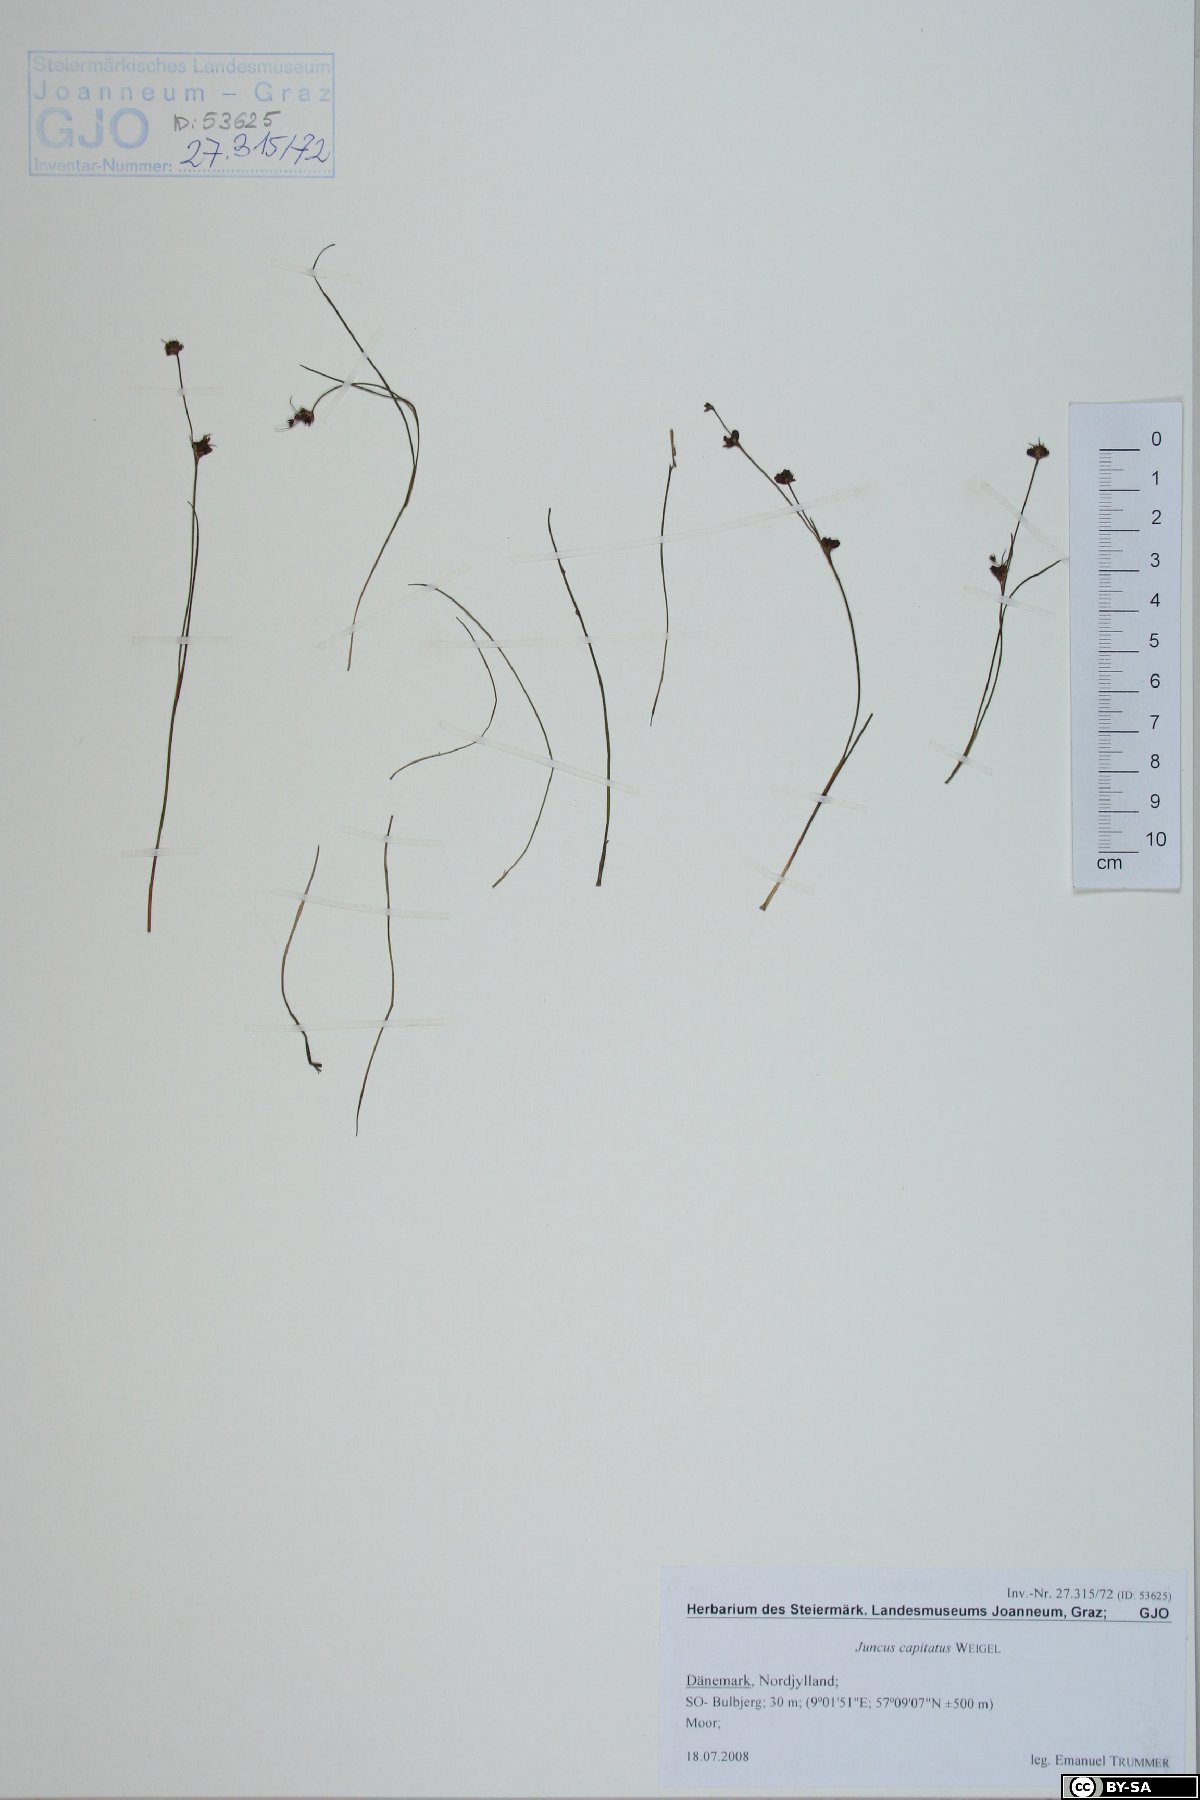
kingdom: Plantae
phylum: Tracheophyta
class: Liliopsida
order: Poales
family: Juncaceae
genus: Juncus
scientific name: Juncus capitatus
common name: Dwarf rush
